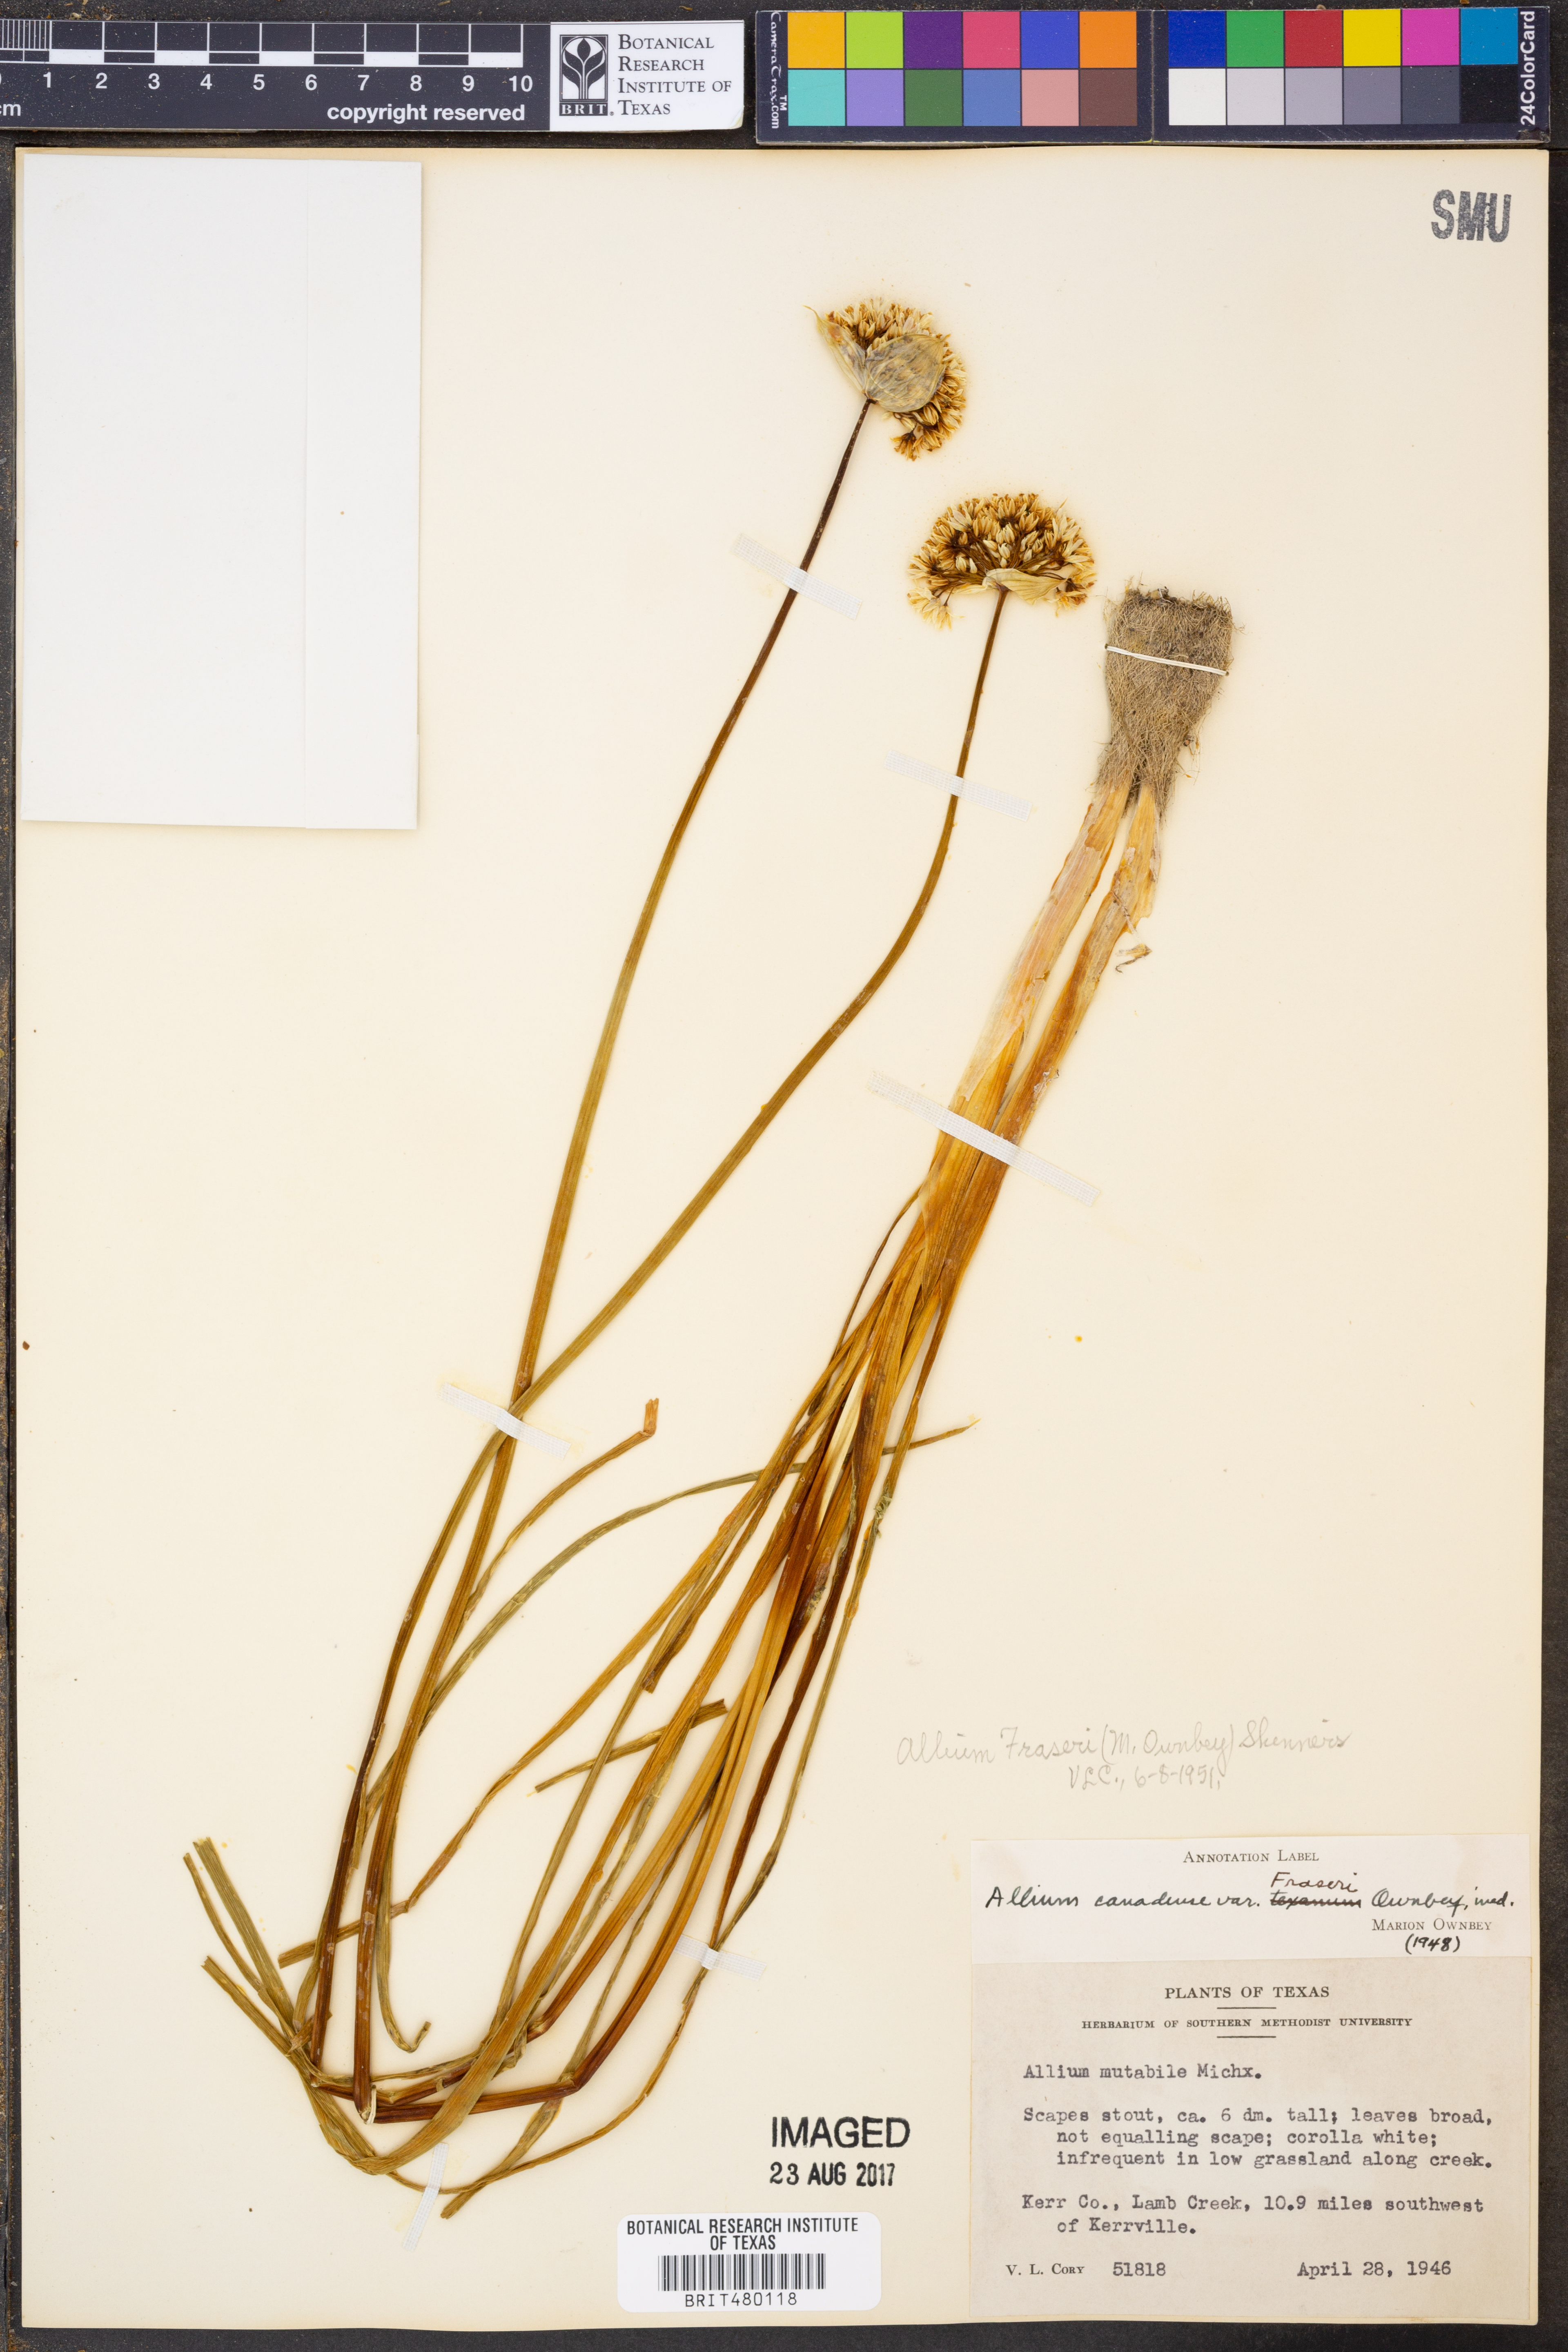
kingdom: Plantae
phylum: Tracheophyta
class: Liliopsida
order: Asparagales
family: Amaryllidaceae
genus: Allium
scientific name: Allium fraseri
